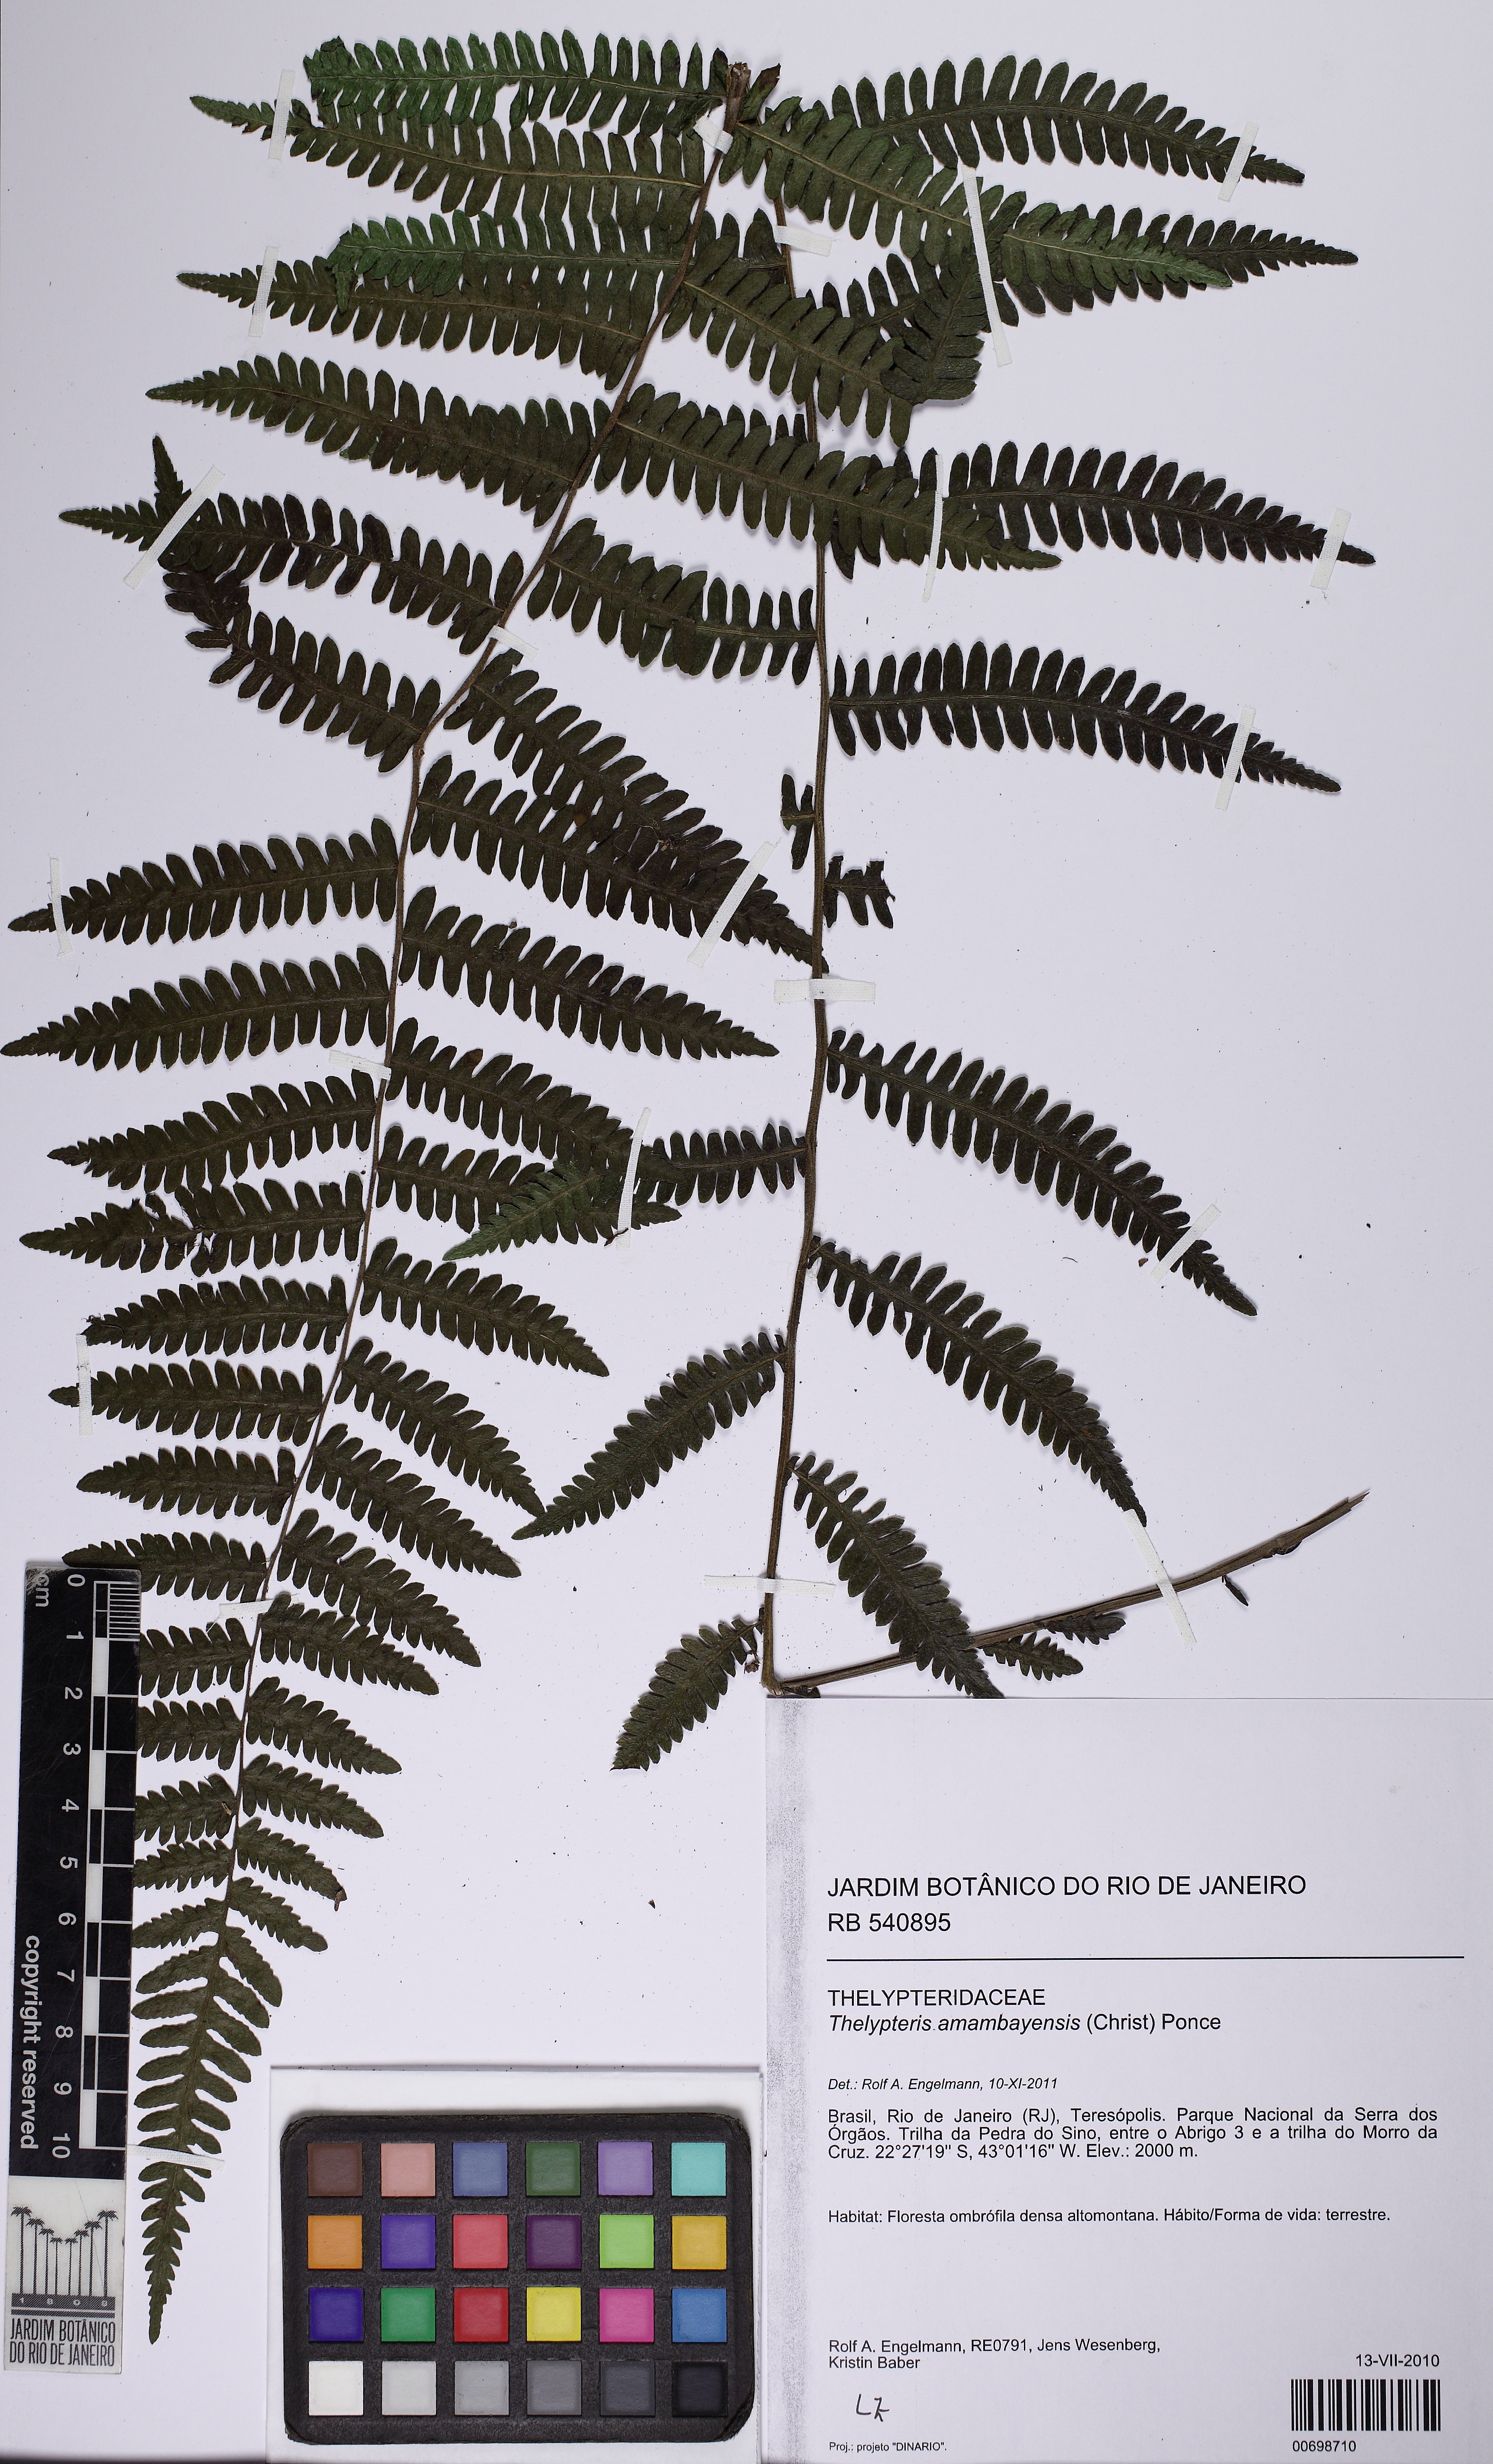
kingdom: Plantae
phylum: Tracheophyta
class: Polypodiopsida
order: Polypodiales
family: Thelypteridaceae
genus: Amauropelta
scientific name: Amauropelta amambayensis
